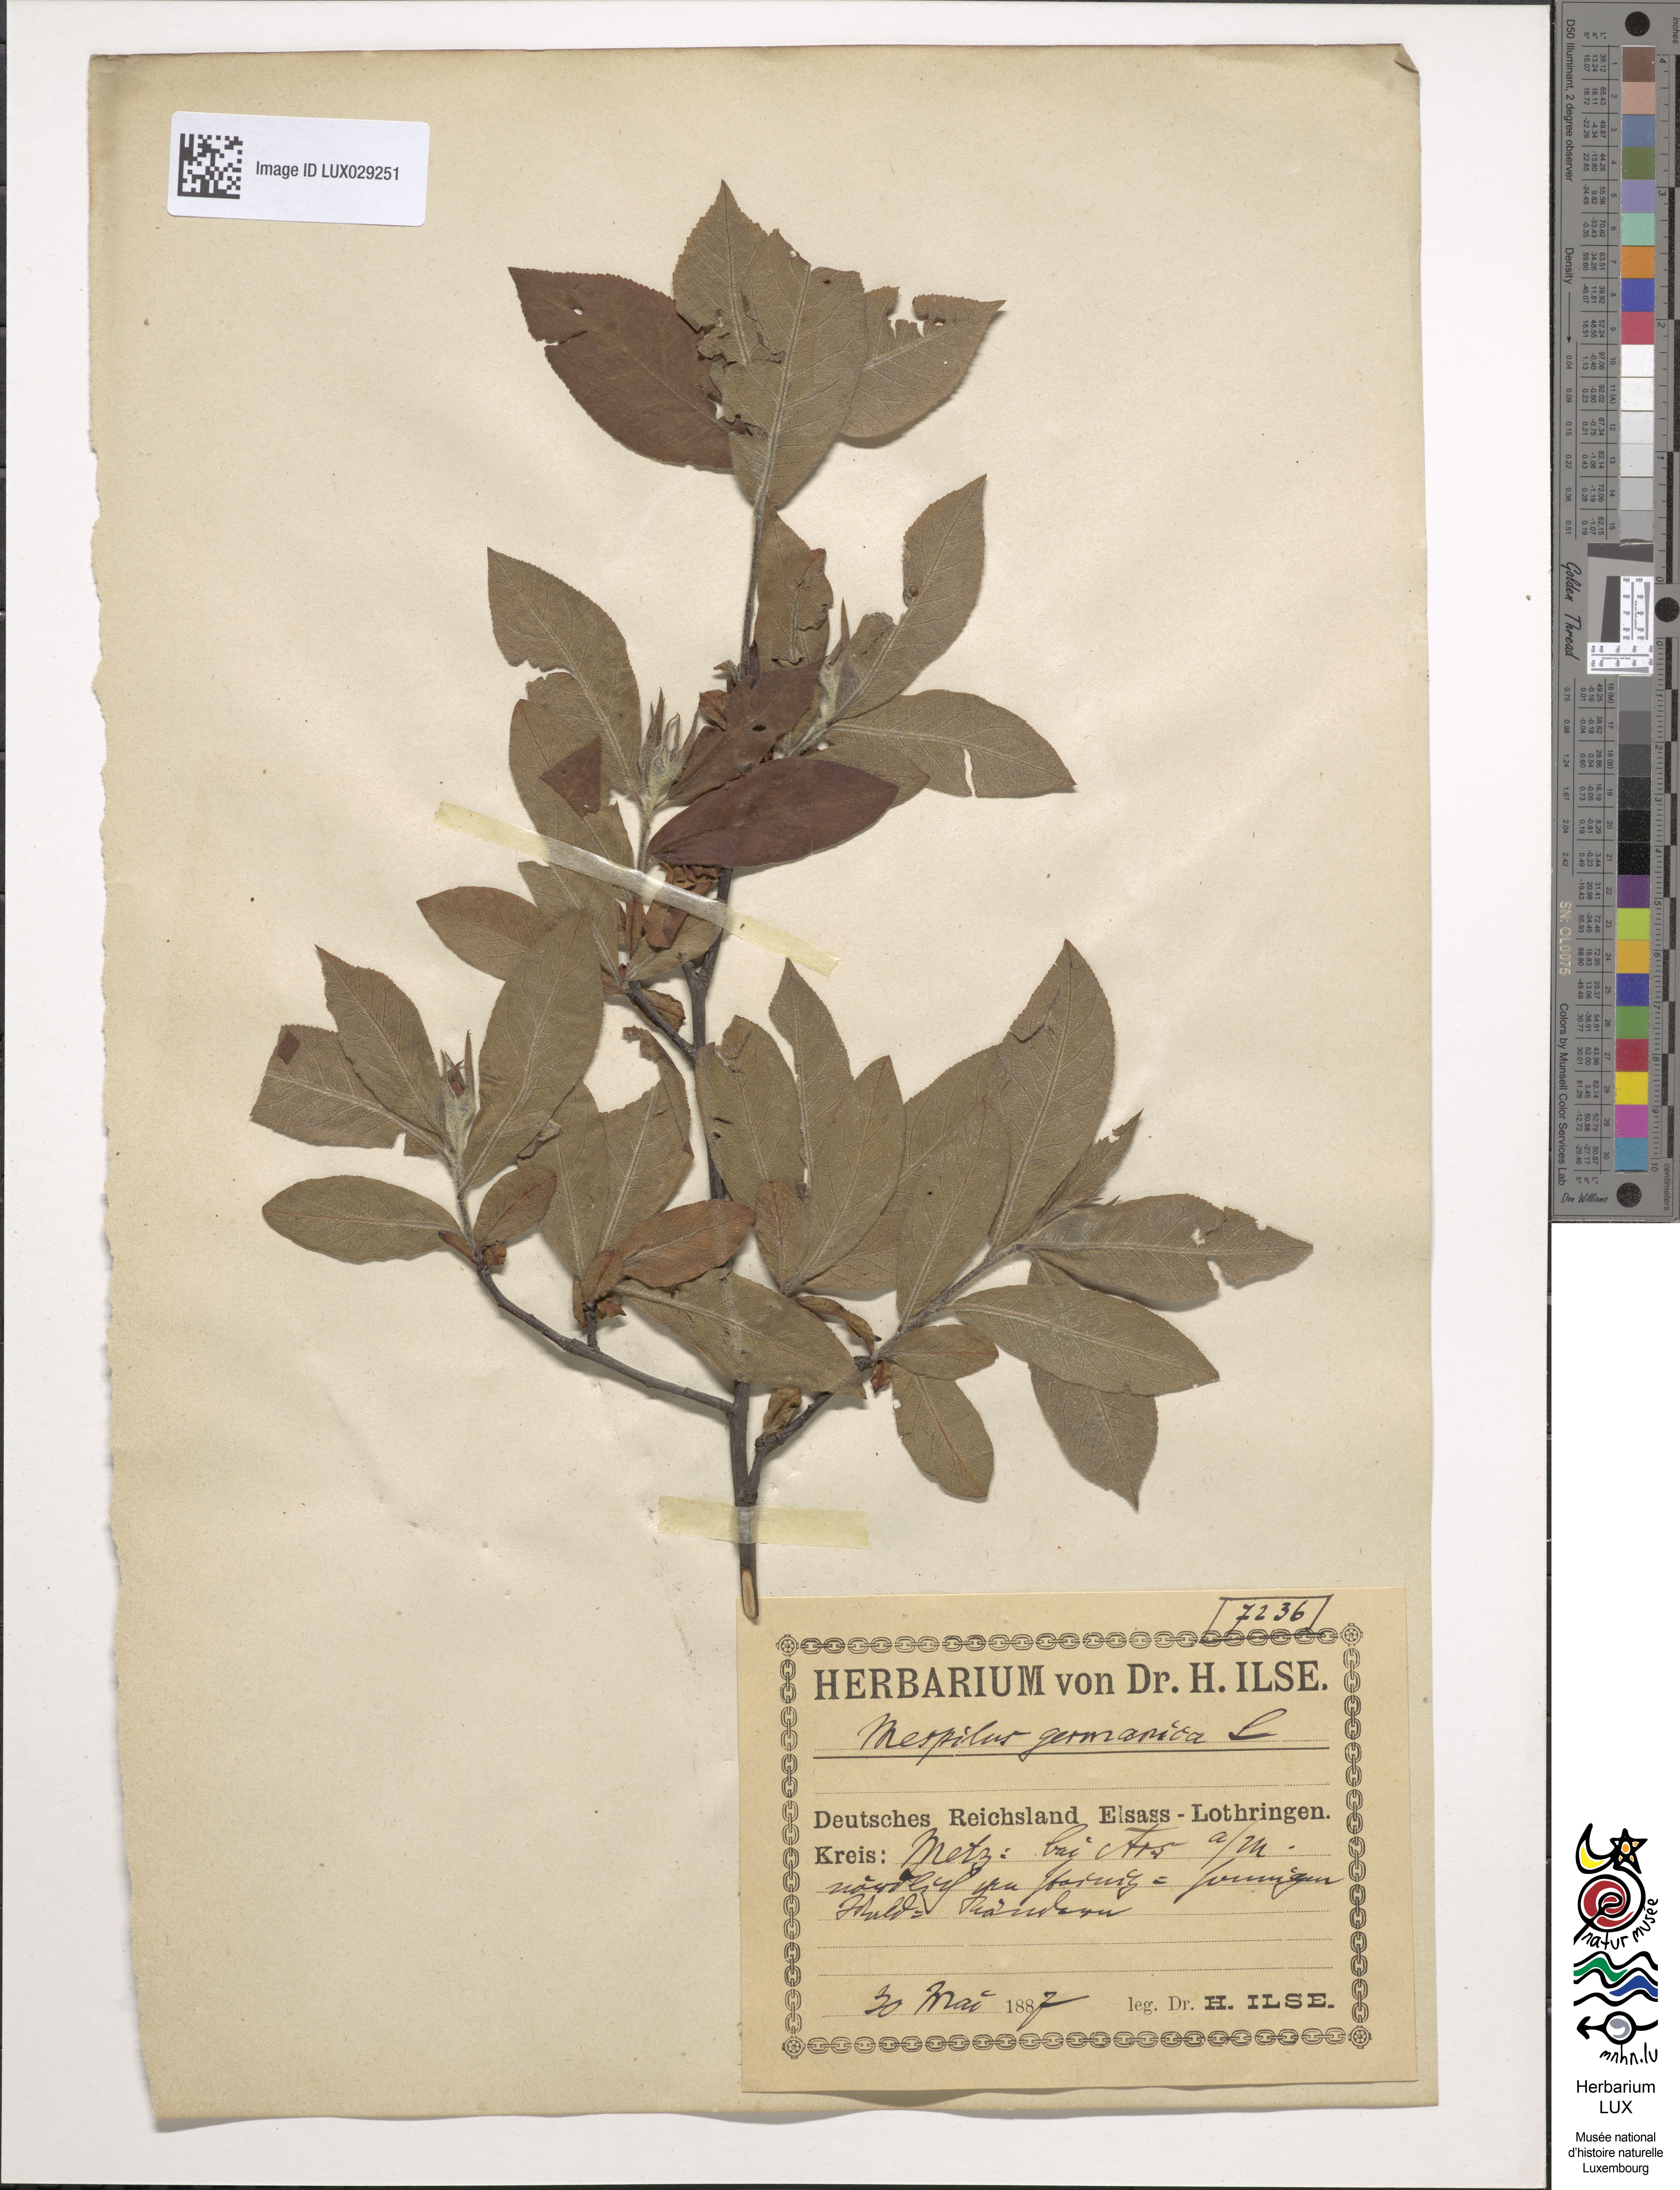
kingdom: Plantae
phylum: Tracheophyta
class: Magnoliopsida
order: Rosales
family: Rosaceae
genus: Mespilus
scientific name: Mespilus germanica
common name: Medlar
